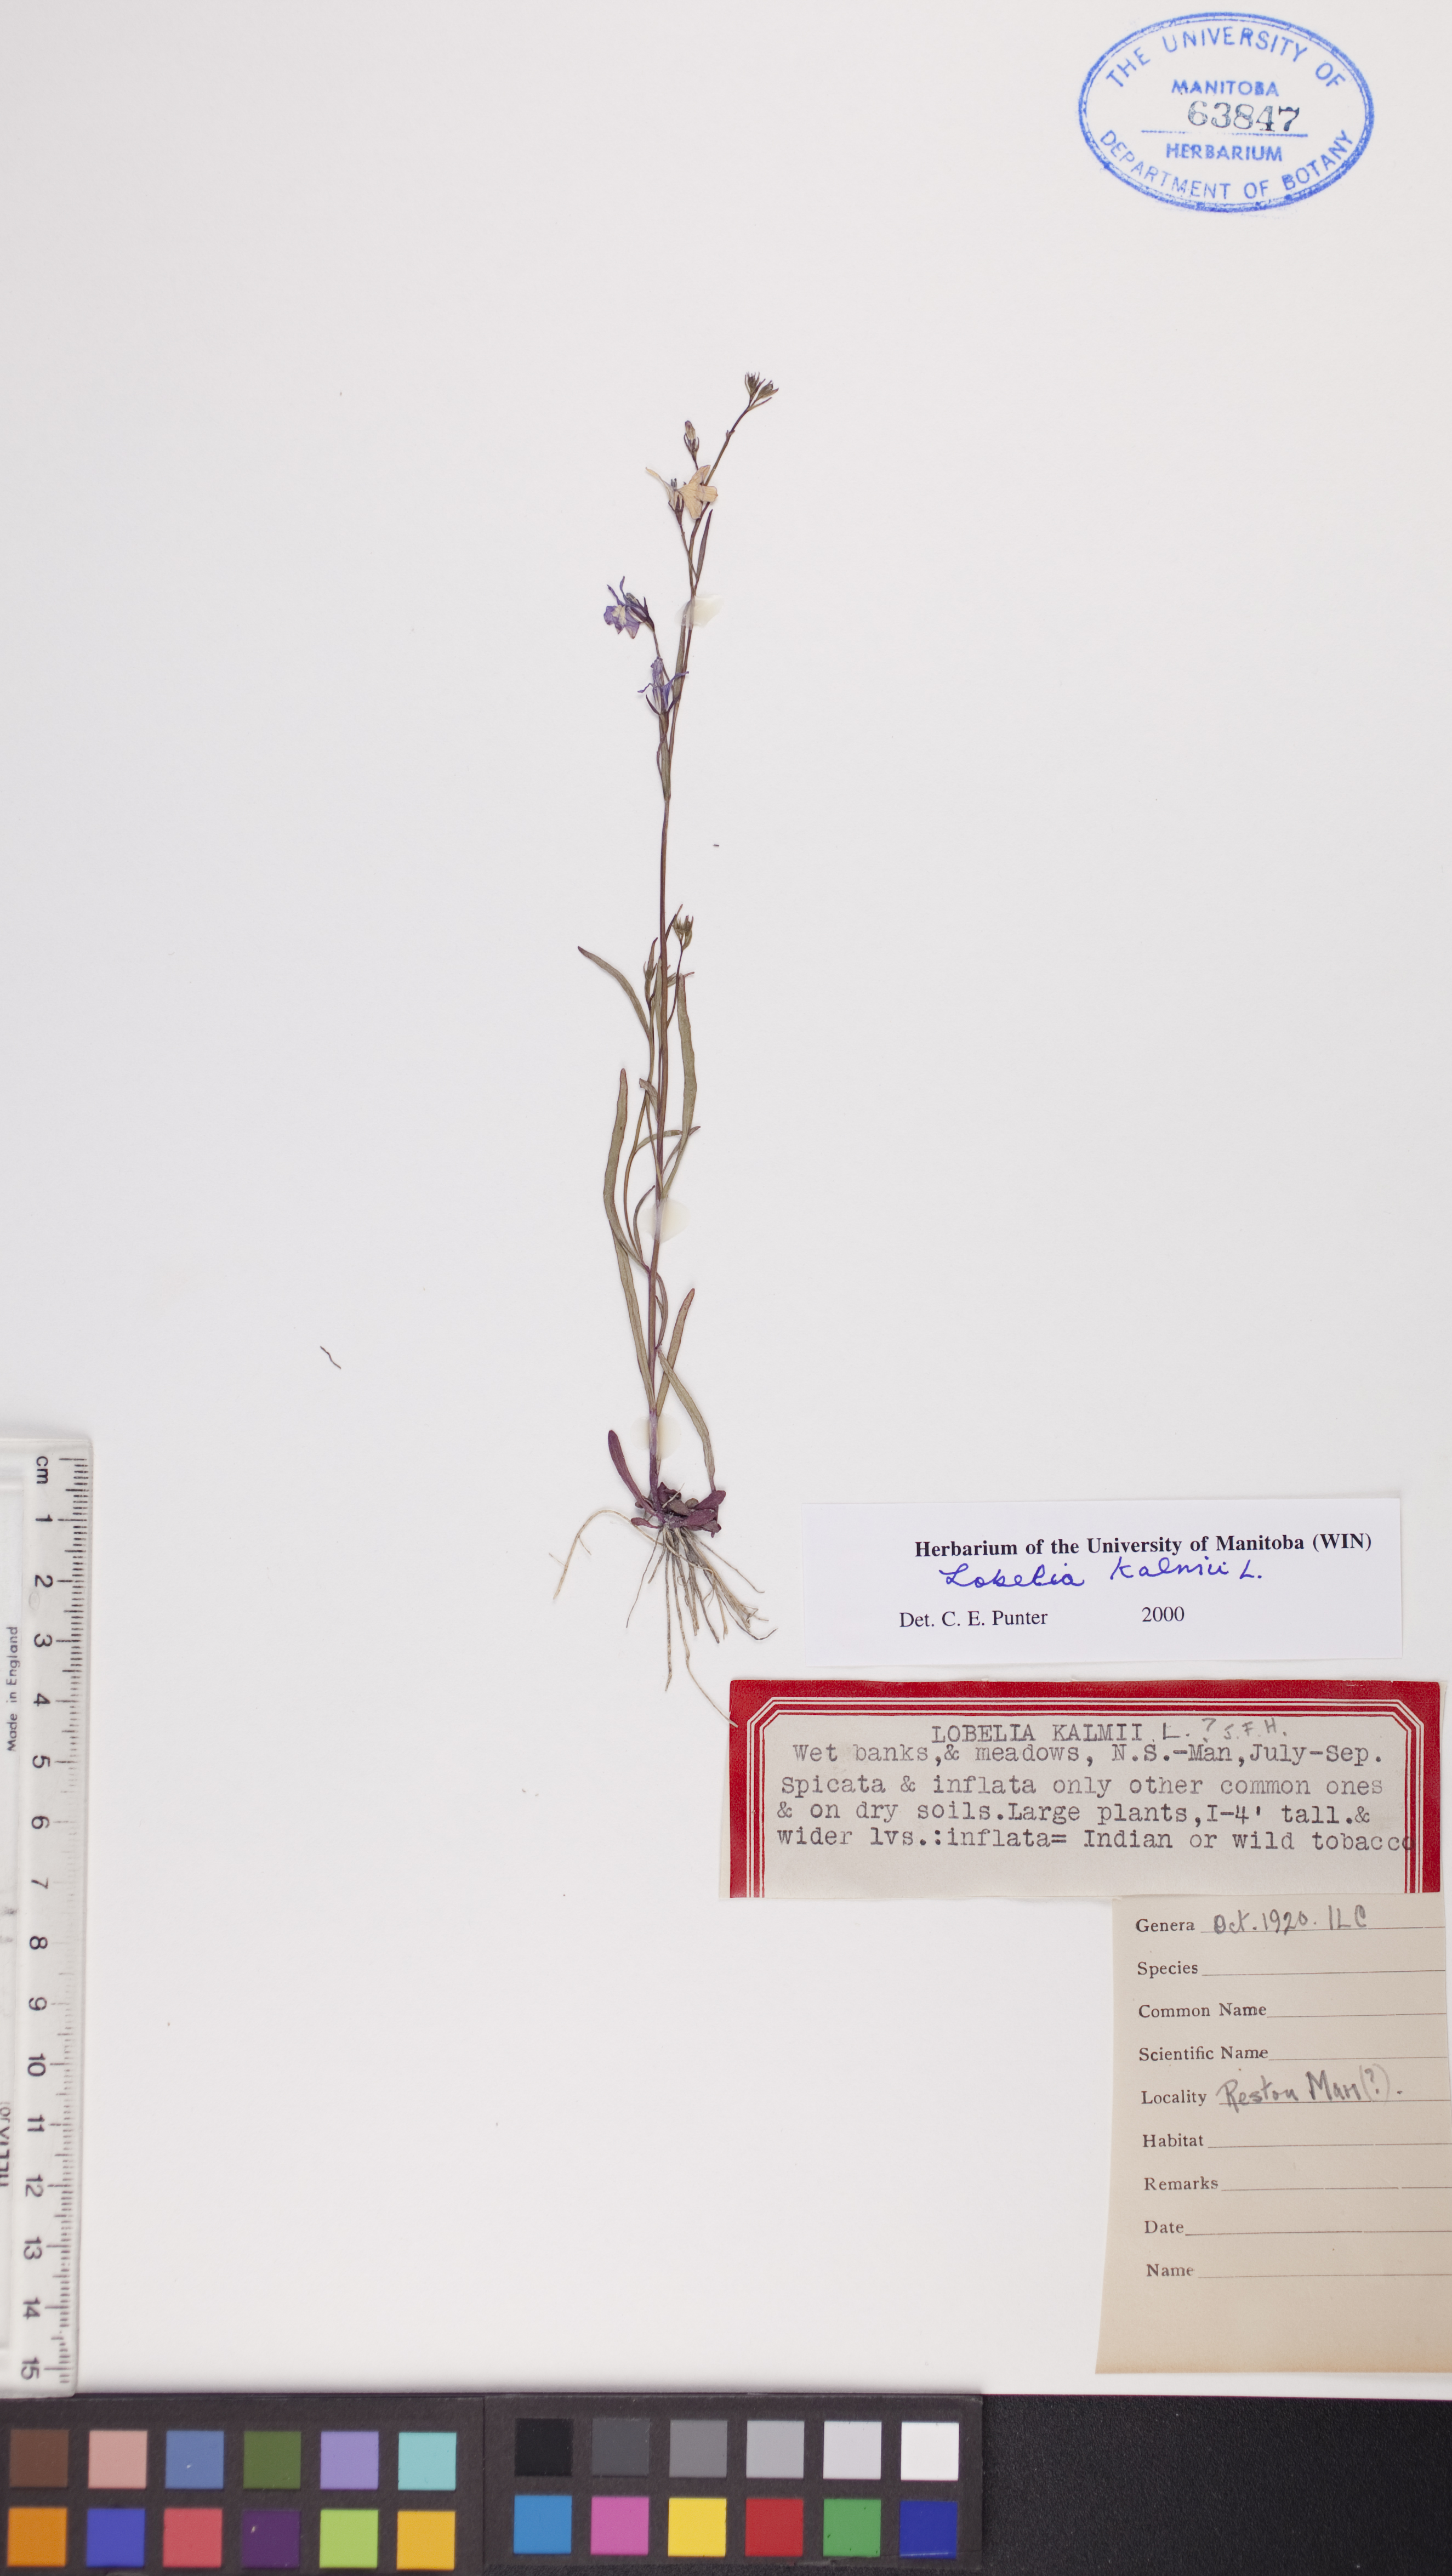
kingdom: Plantae
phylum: Tracheophyta
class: Magnoliopsida
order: Asterales
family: Campanulaceae
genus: Lobelia
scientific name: Lobelia kalmii
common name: Kalm's lobelia
